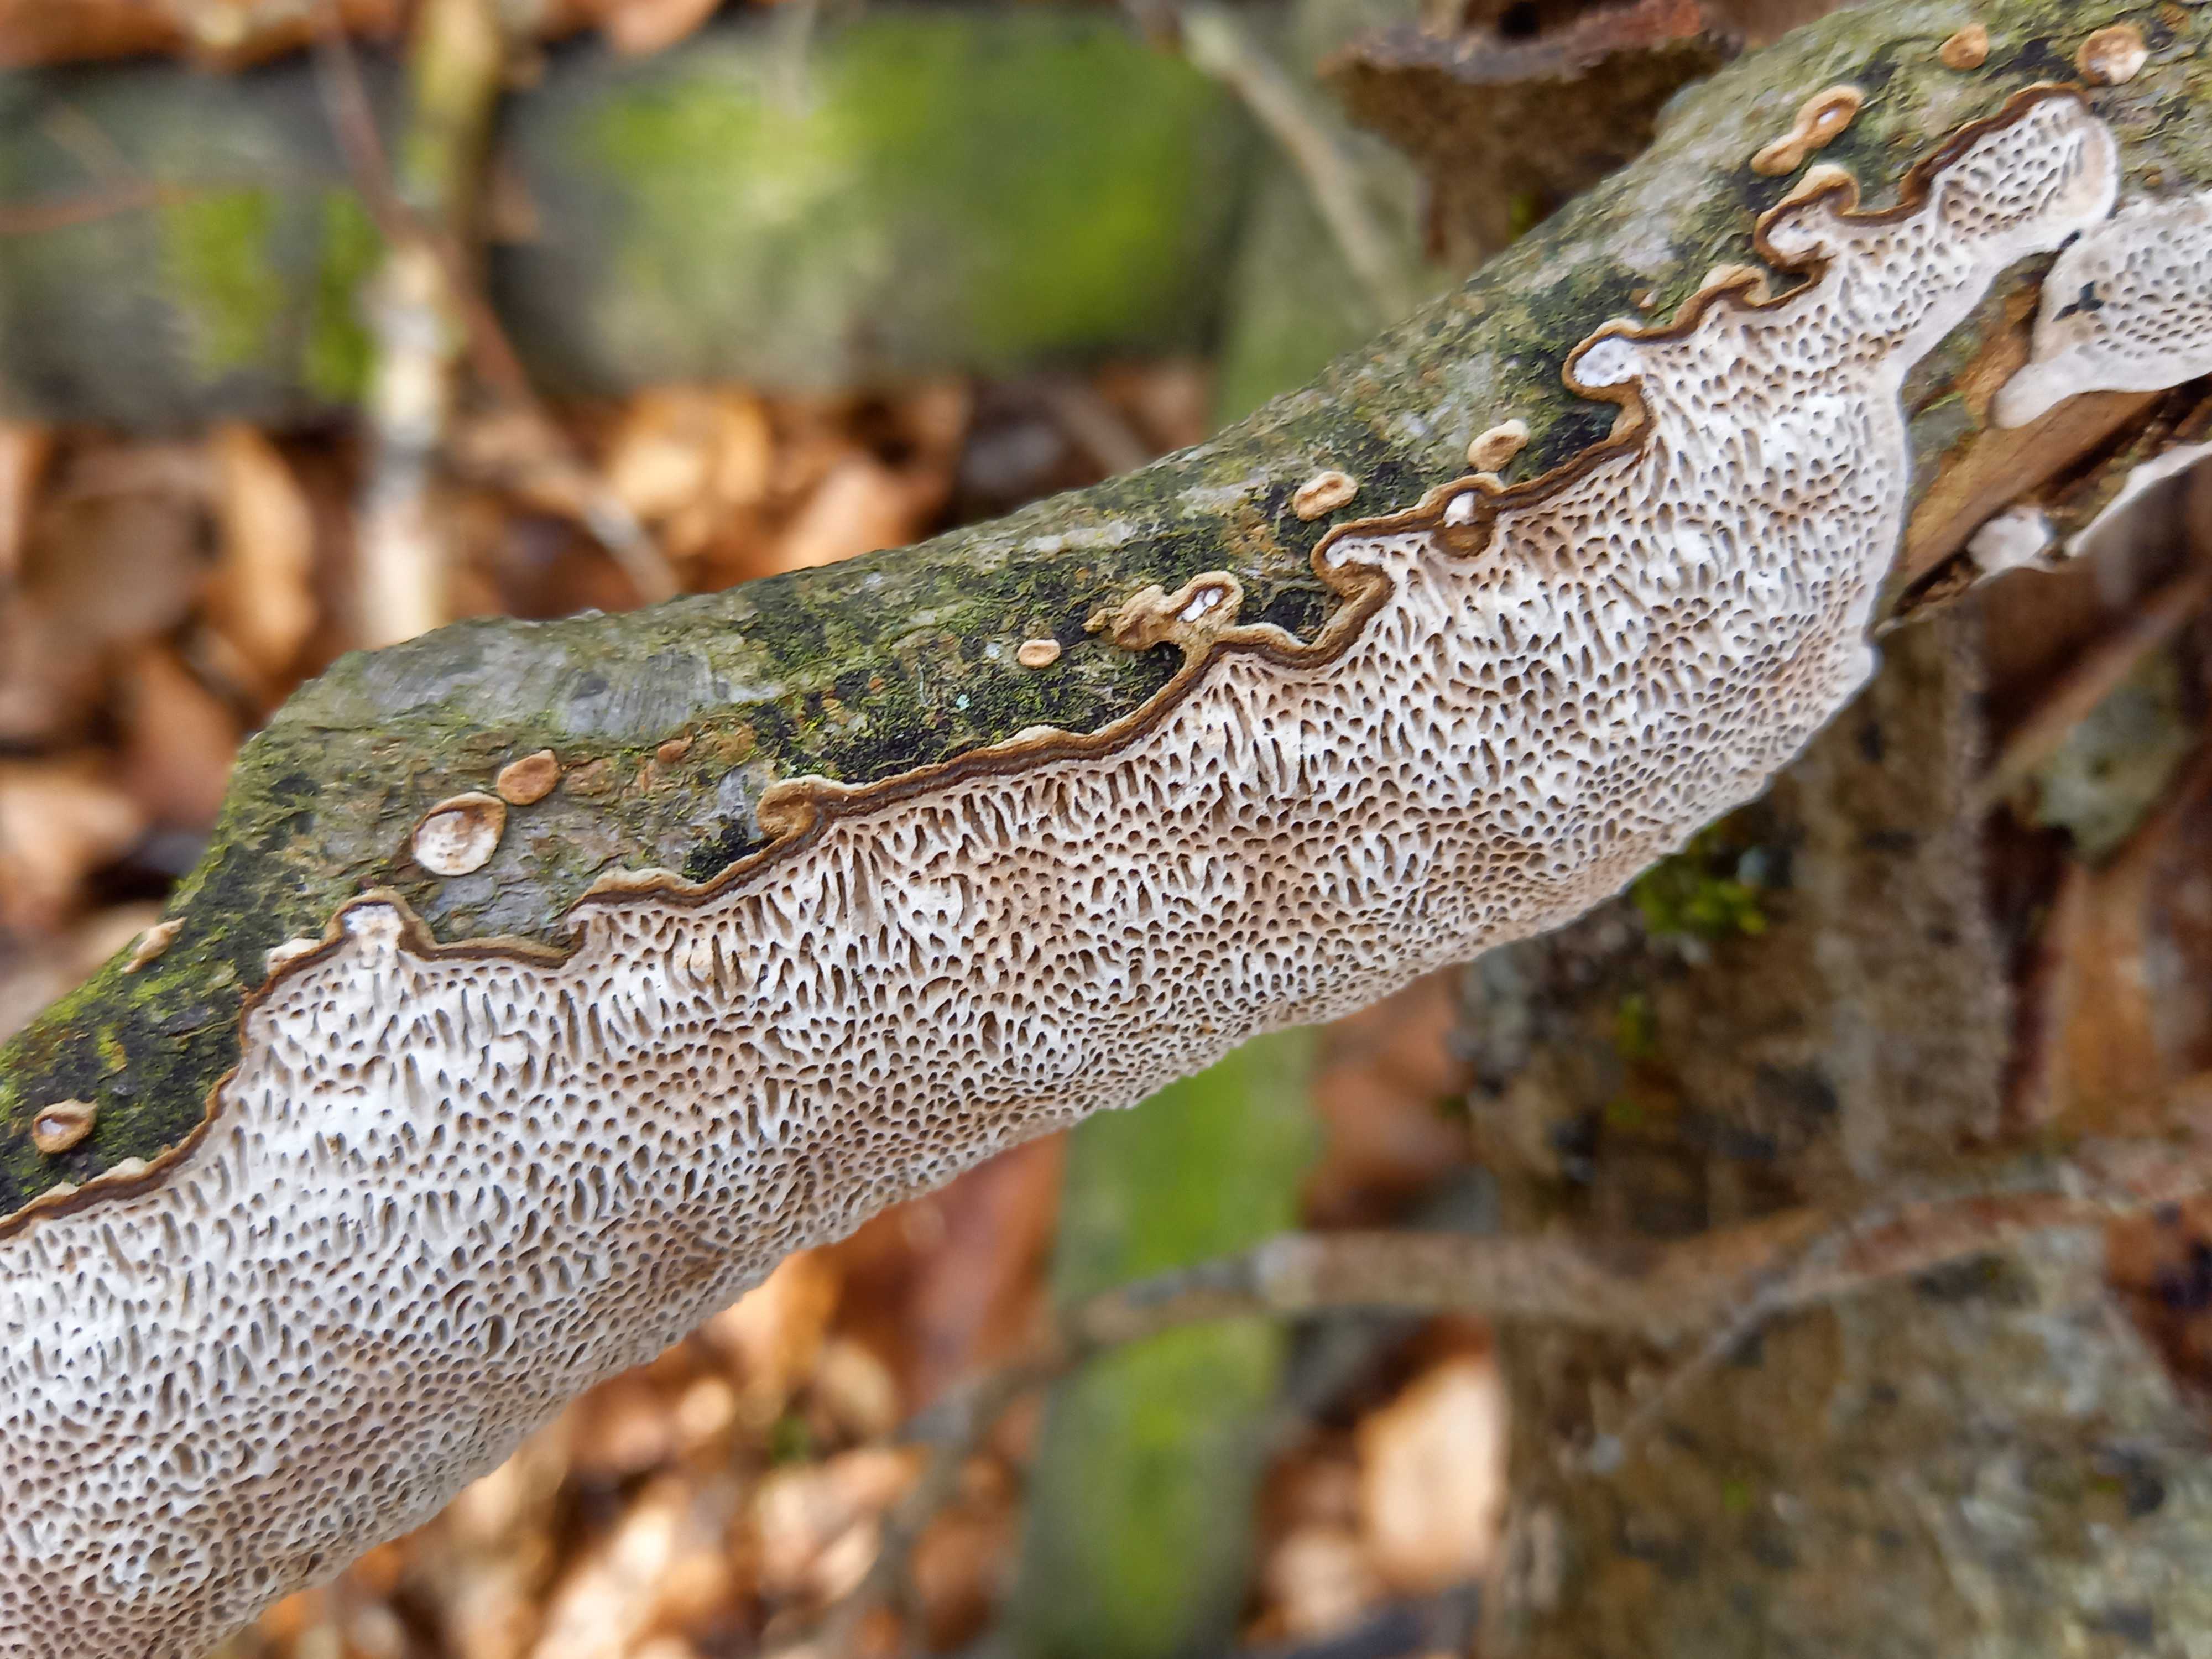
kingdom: Fungi
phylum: Basidiomycota
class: Agaricomycetes
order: Polyporales
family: Polyporaceae
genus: Podofomes
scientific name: Podofomes mollis
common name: blød begporesvamp
